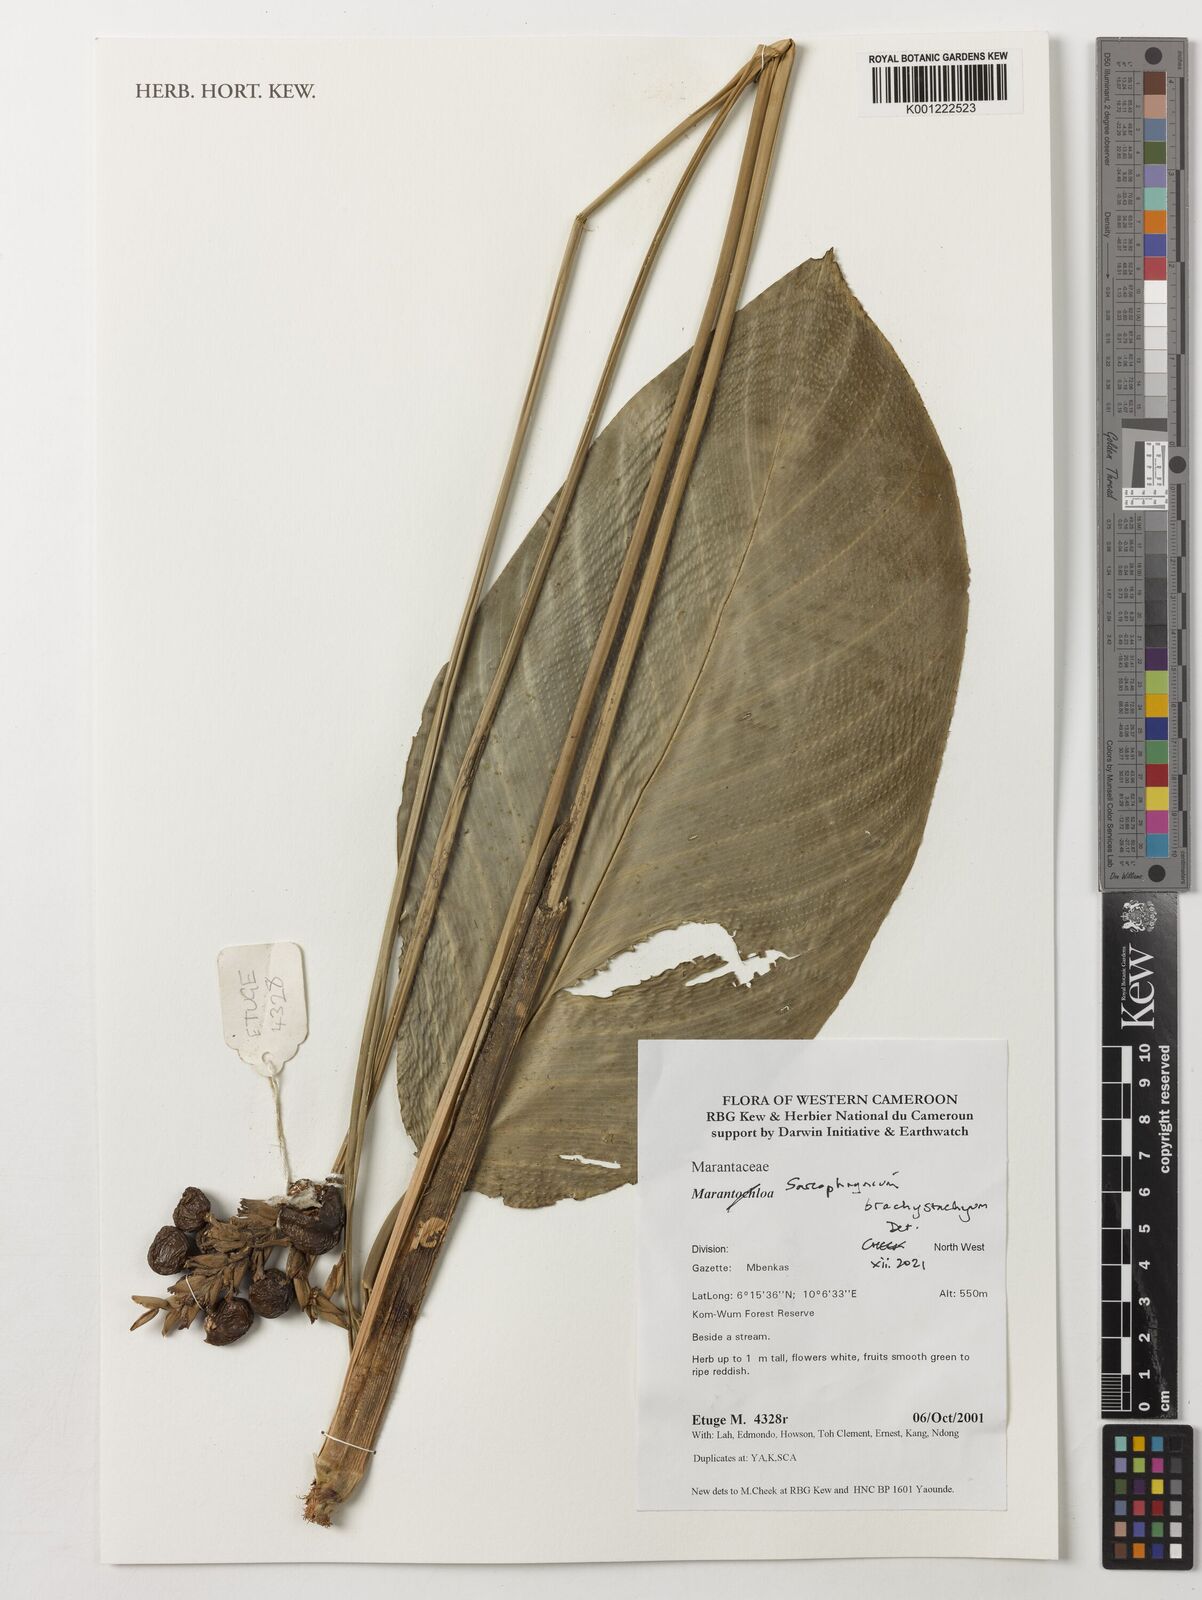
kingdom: Plantae
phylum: Tracheophyta
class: Liliopsida
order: Zingiberales
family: Marantaceae
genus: Sarcophrynium
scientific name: Sarcophrynium brachystachyum
